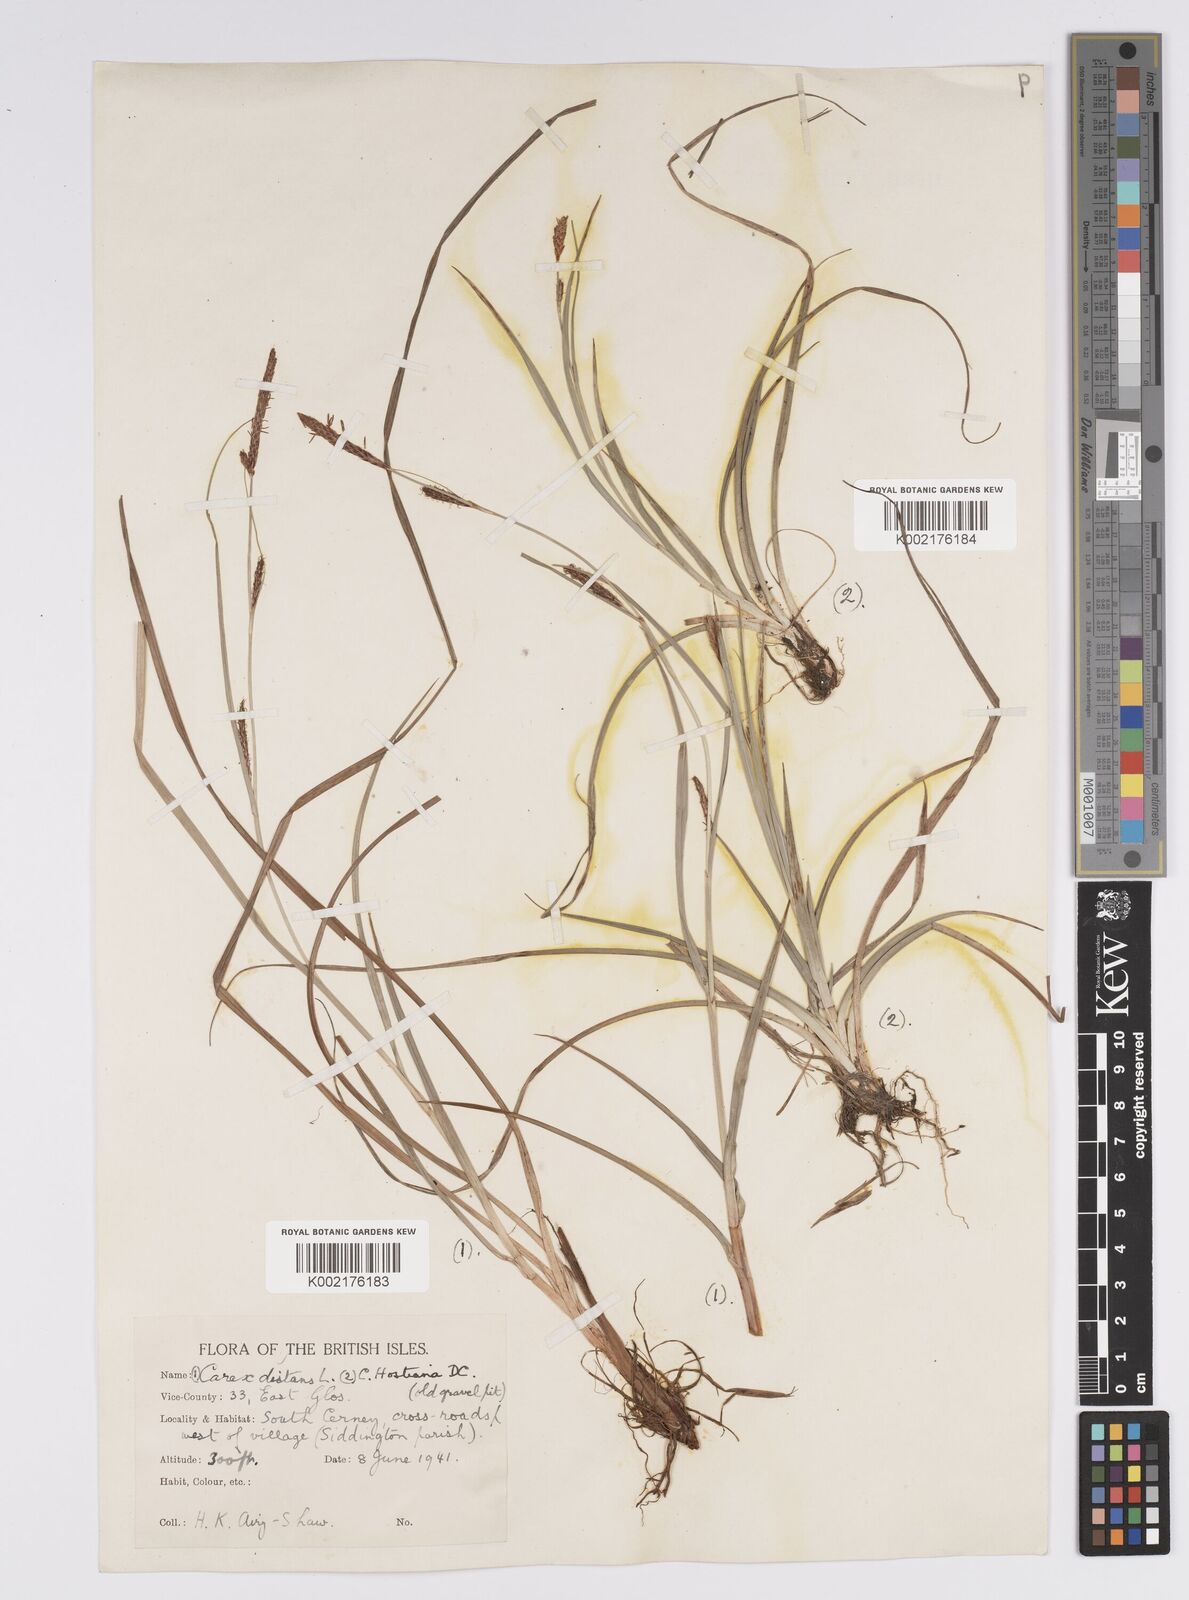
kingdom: Plantae
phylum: Tracheophyta
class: Liliopsida
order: Poales
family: Cyperaceae
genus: Carex
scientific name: Carex distans
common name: Distant sedge
